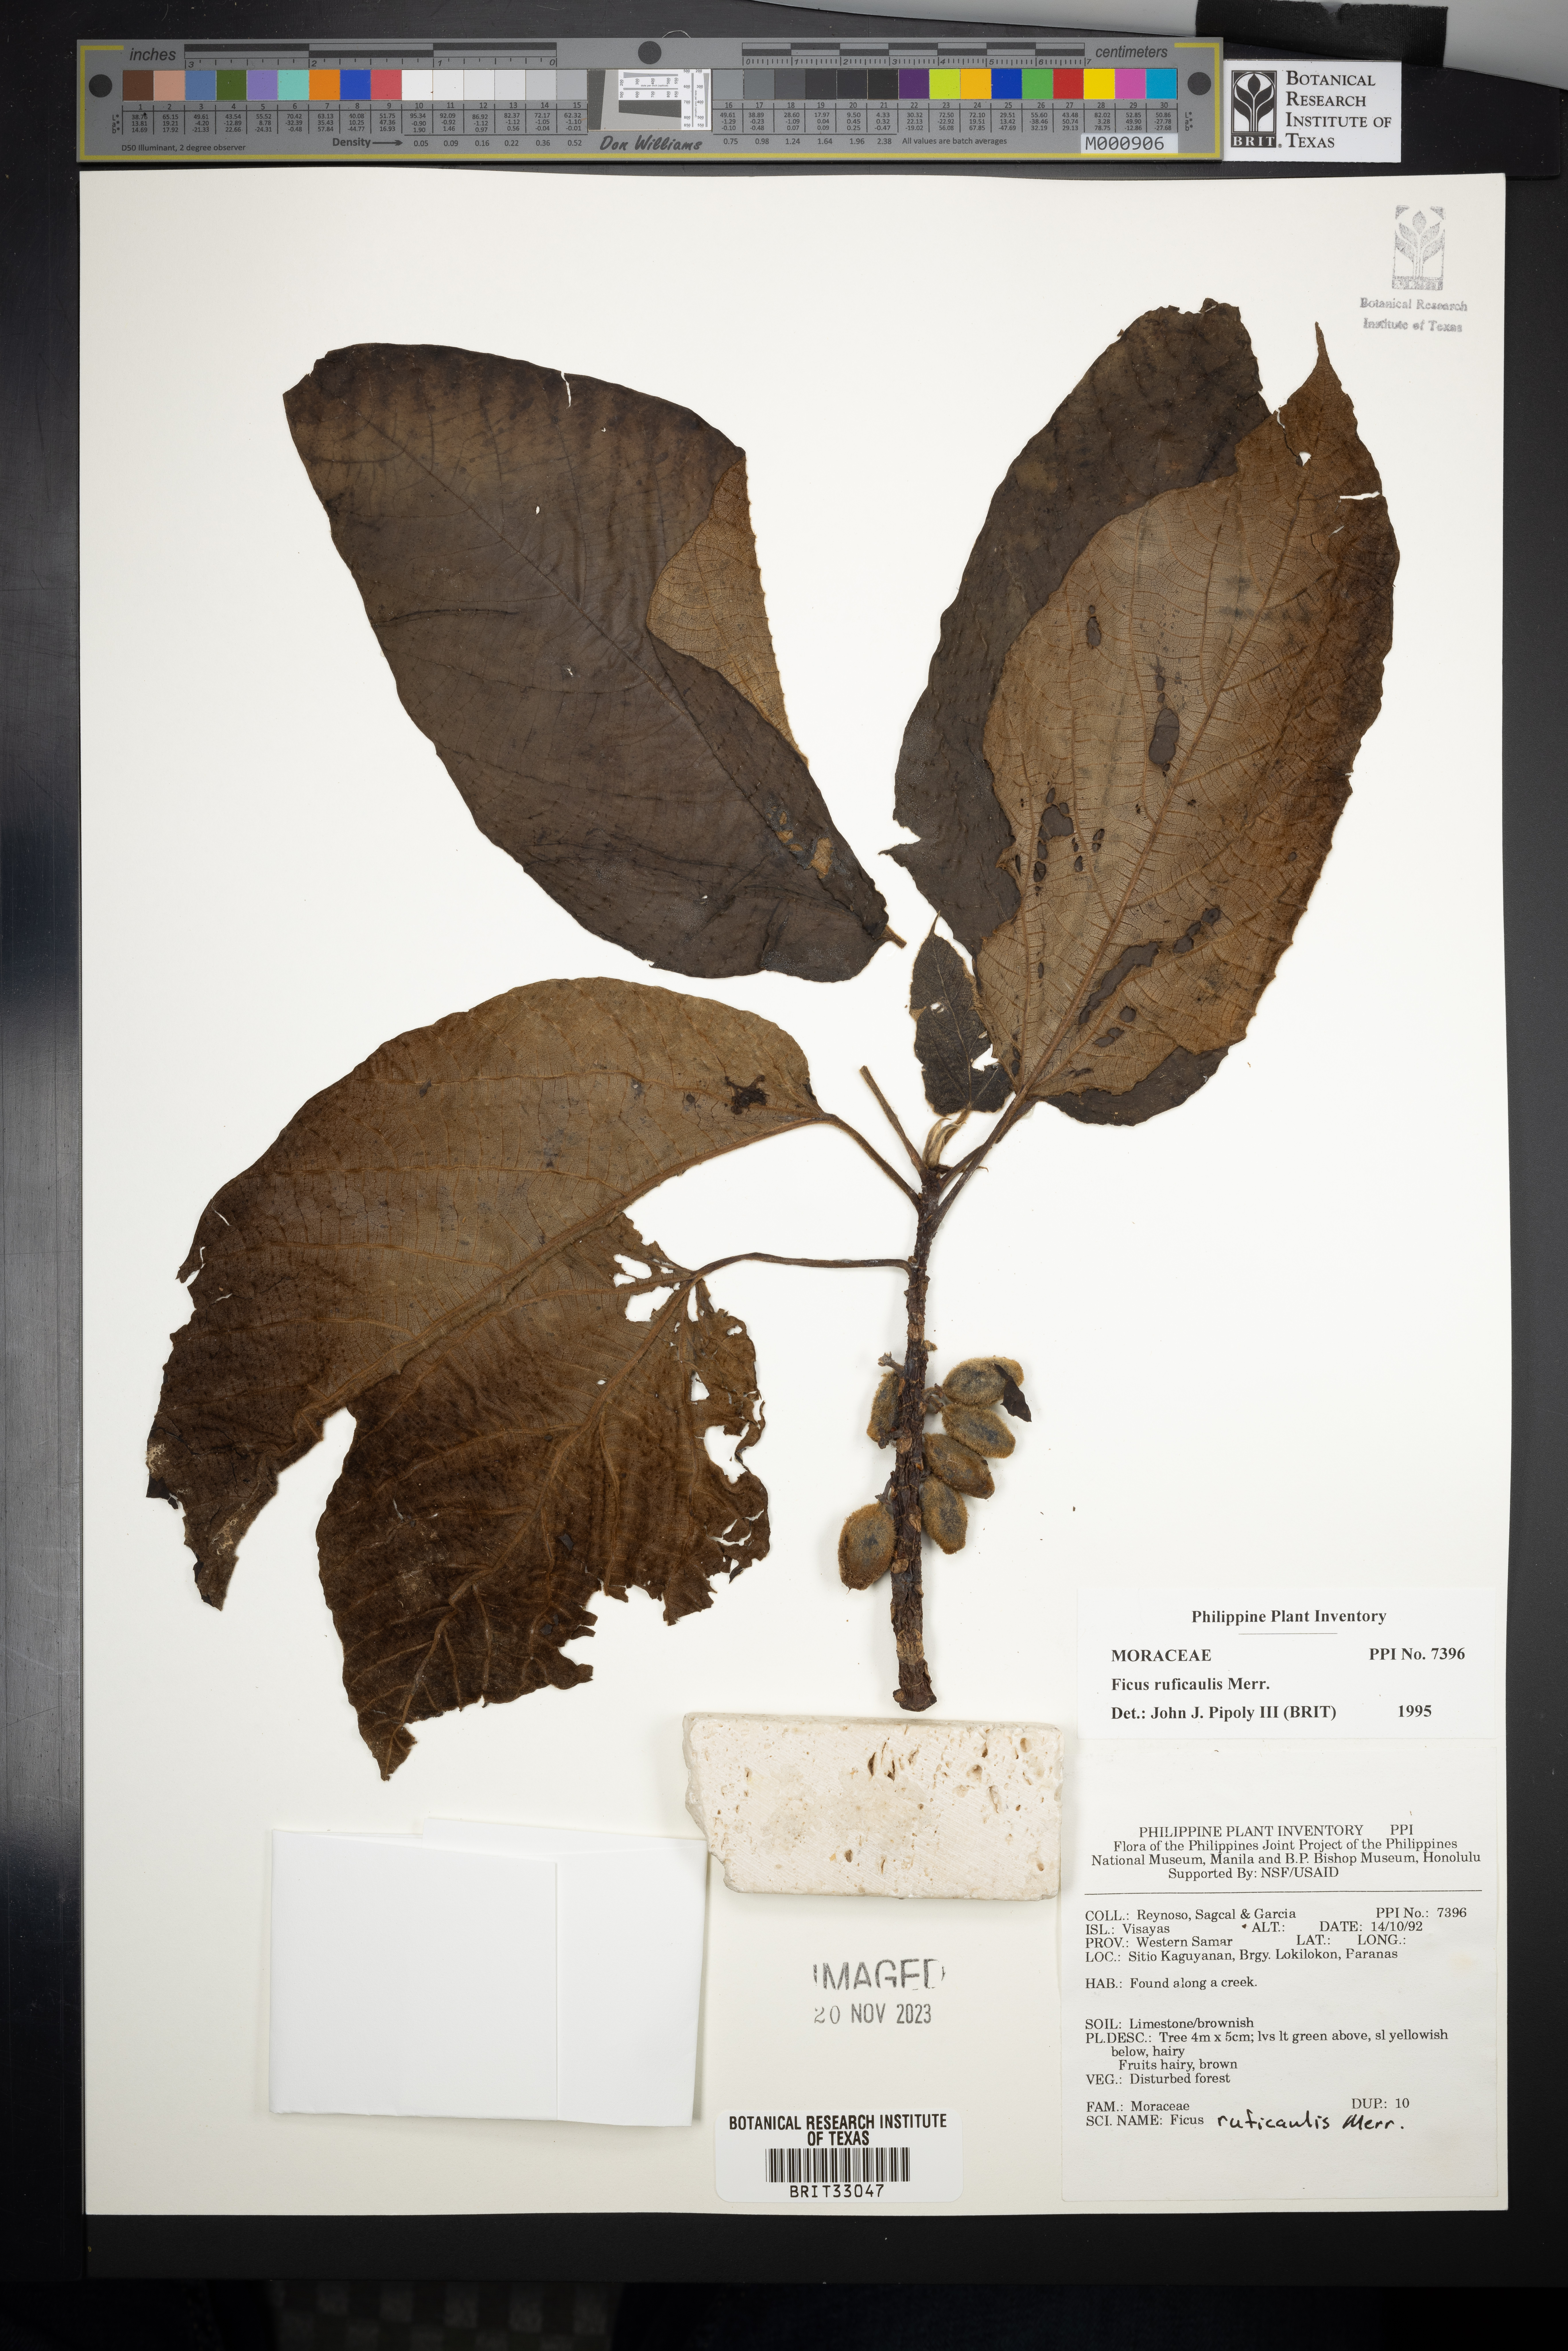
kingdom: Plantae
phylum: Tracheophyta
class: Magnoliopsida
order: Rosales
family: Moraceae
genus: Ficus
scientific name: Ficus ruficaulis
